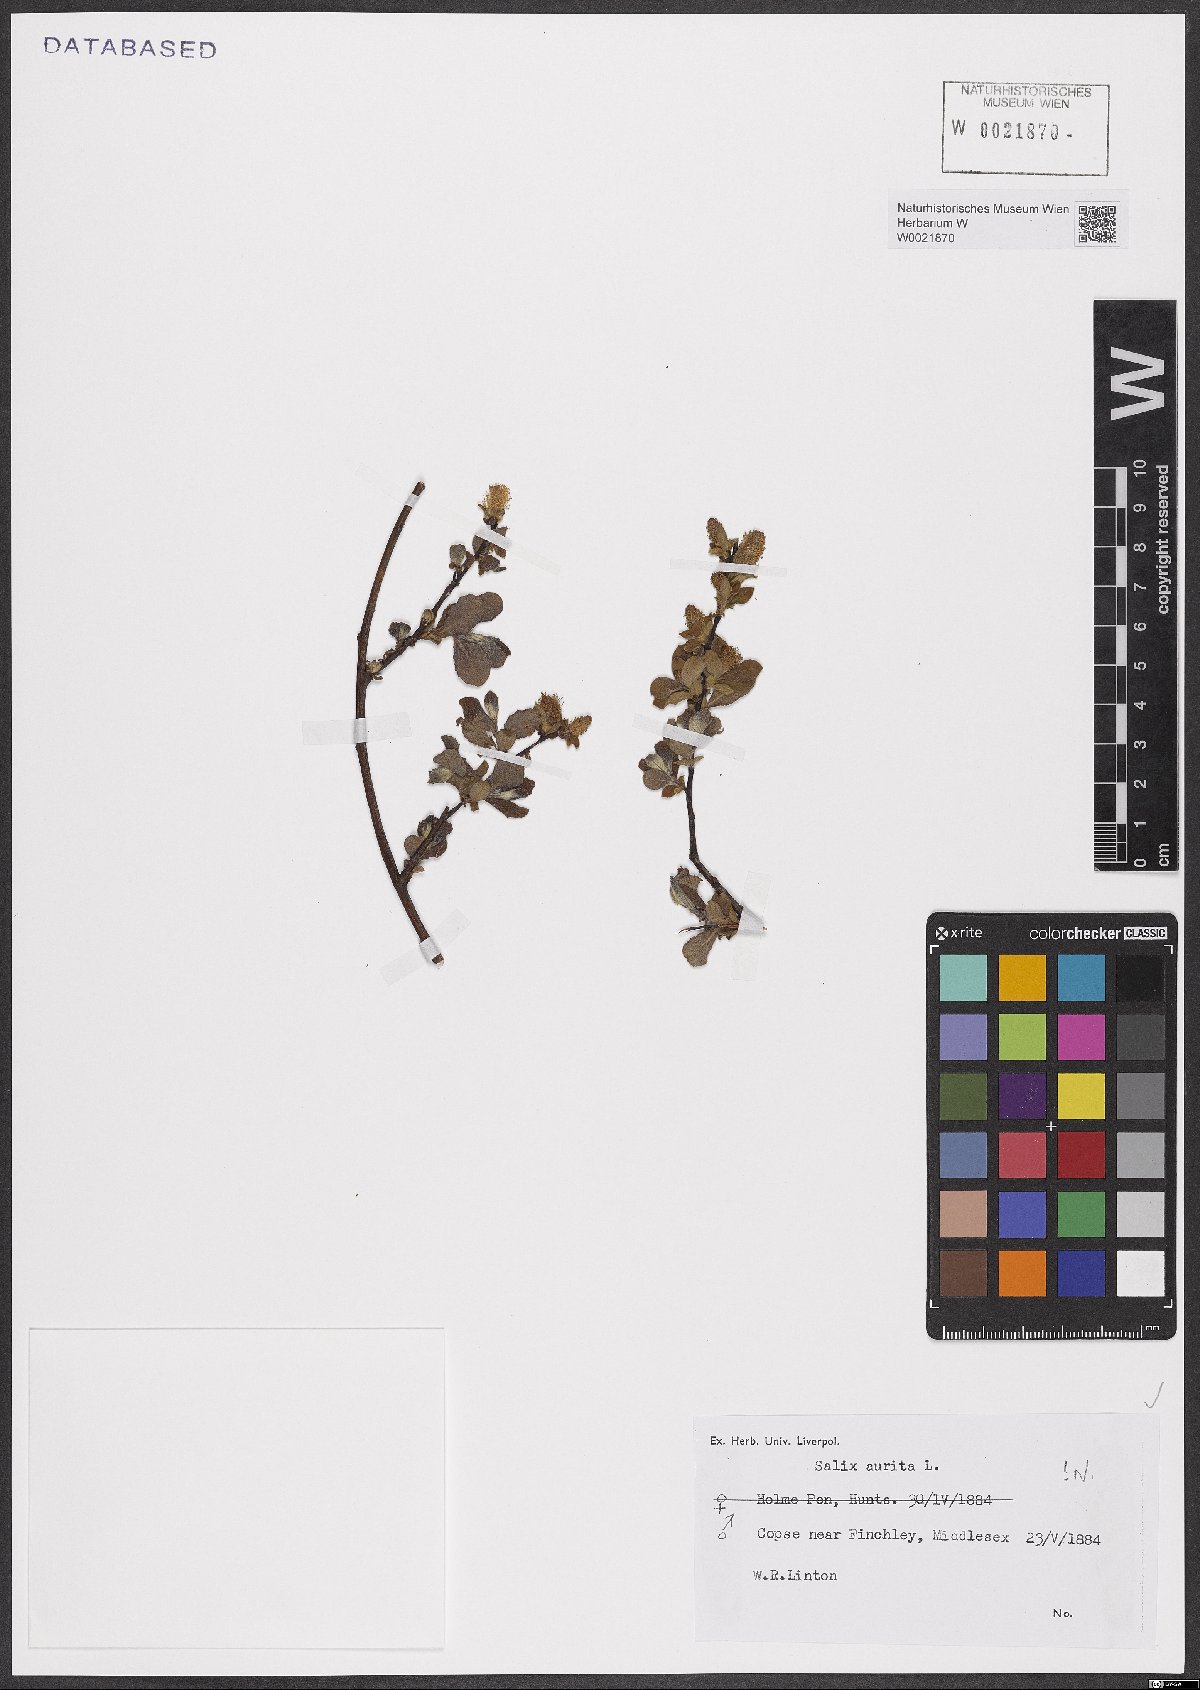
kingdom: Plantae
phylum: Tracheophyta
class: Magnoliopsida
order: Malpighiales
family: Salicaceae
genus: Salix
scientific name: Salix aurita
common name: Eared willow
